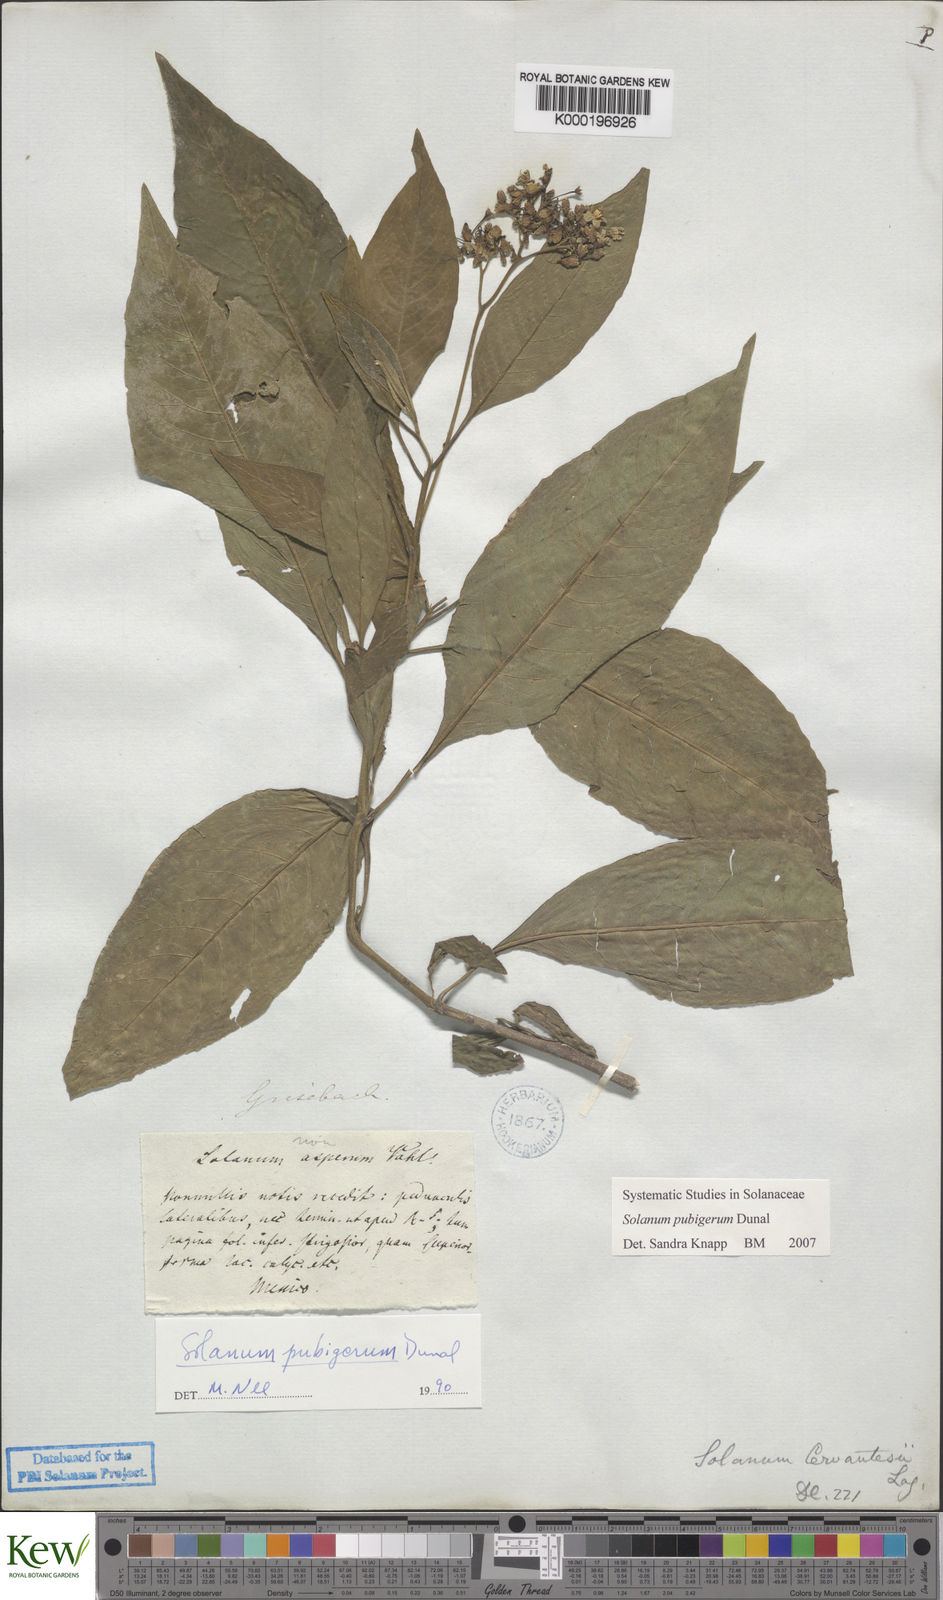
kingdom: Plantae
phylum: Tracheophyta
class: Magnoliopsida
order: Solanales
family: Solanaceae
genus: Solanum
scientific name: Solanum pubigerum
